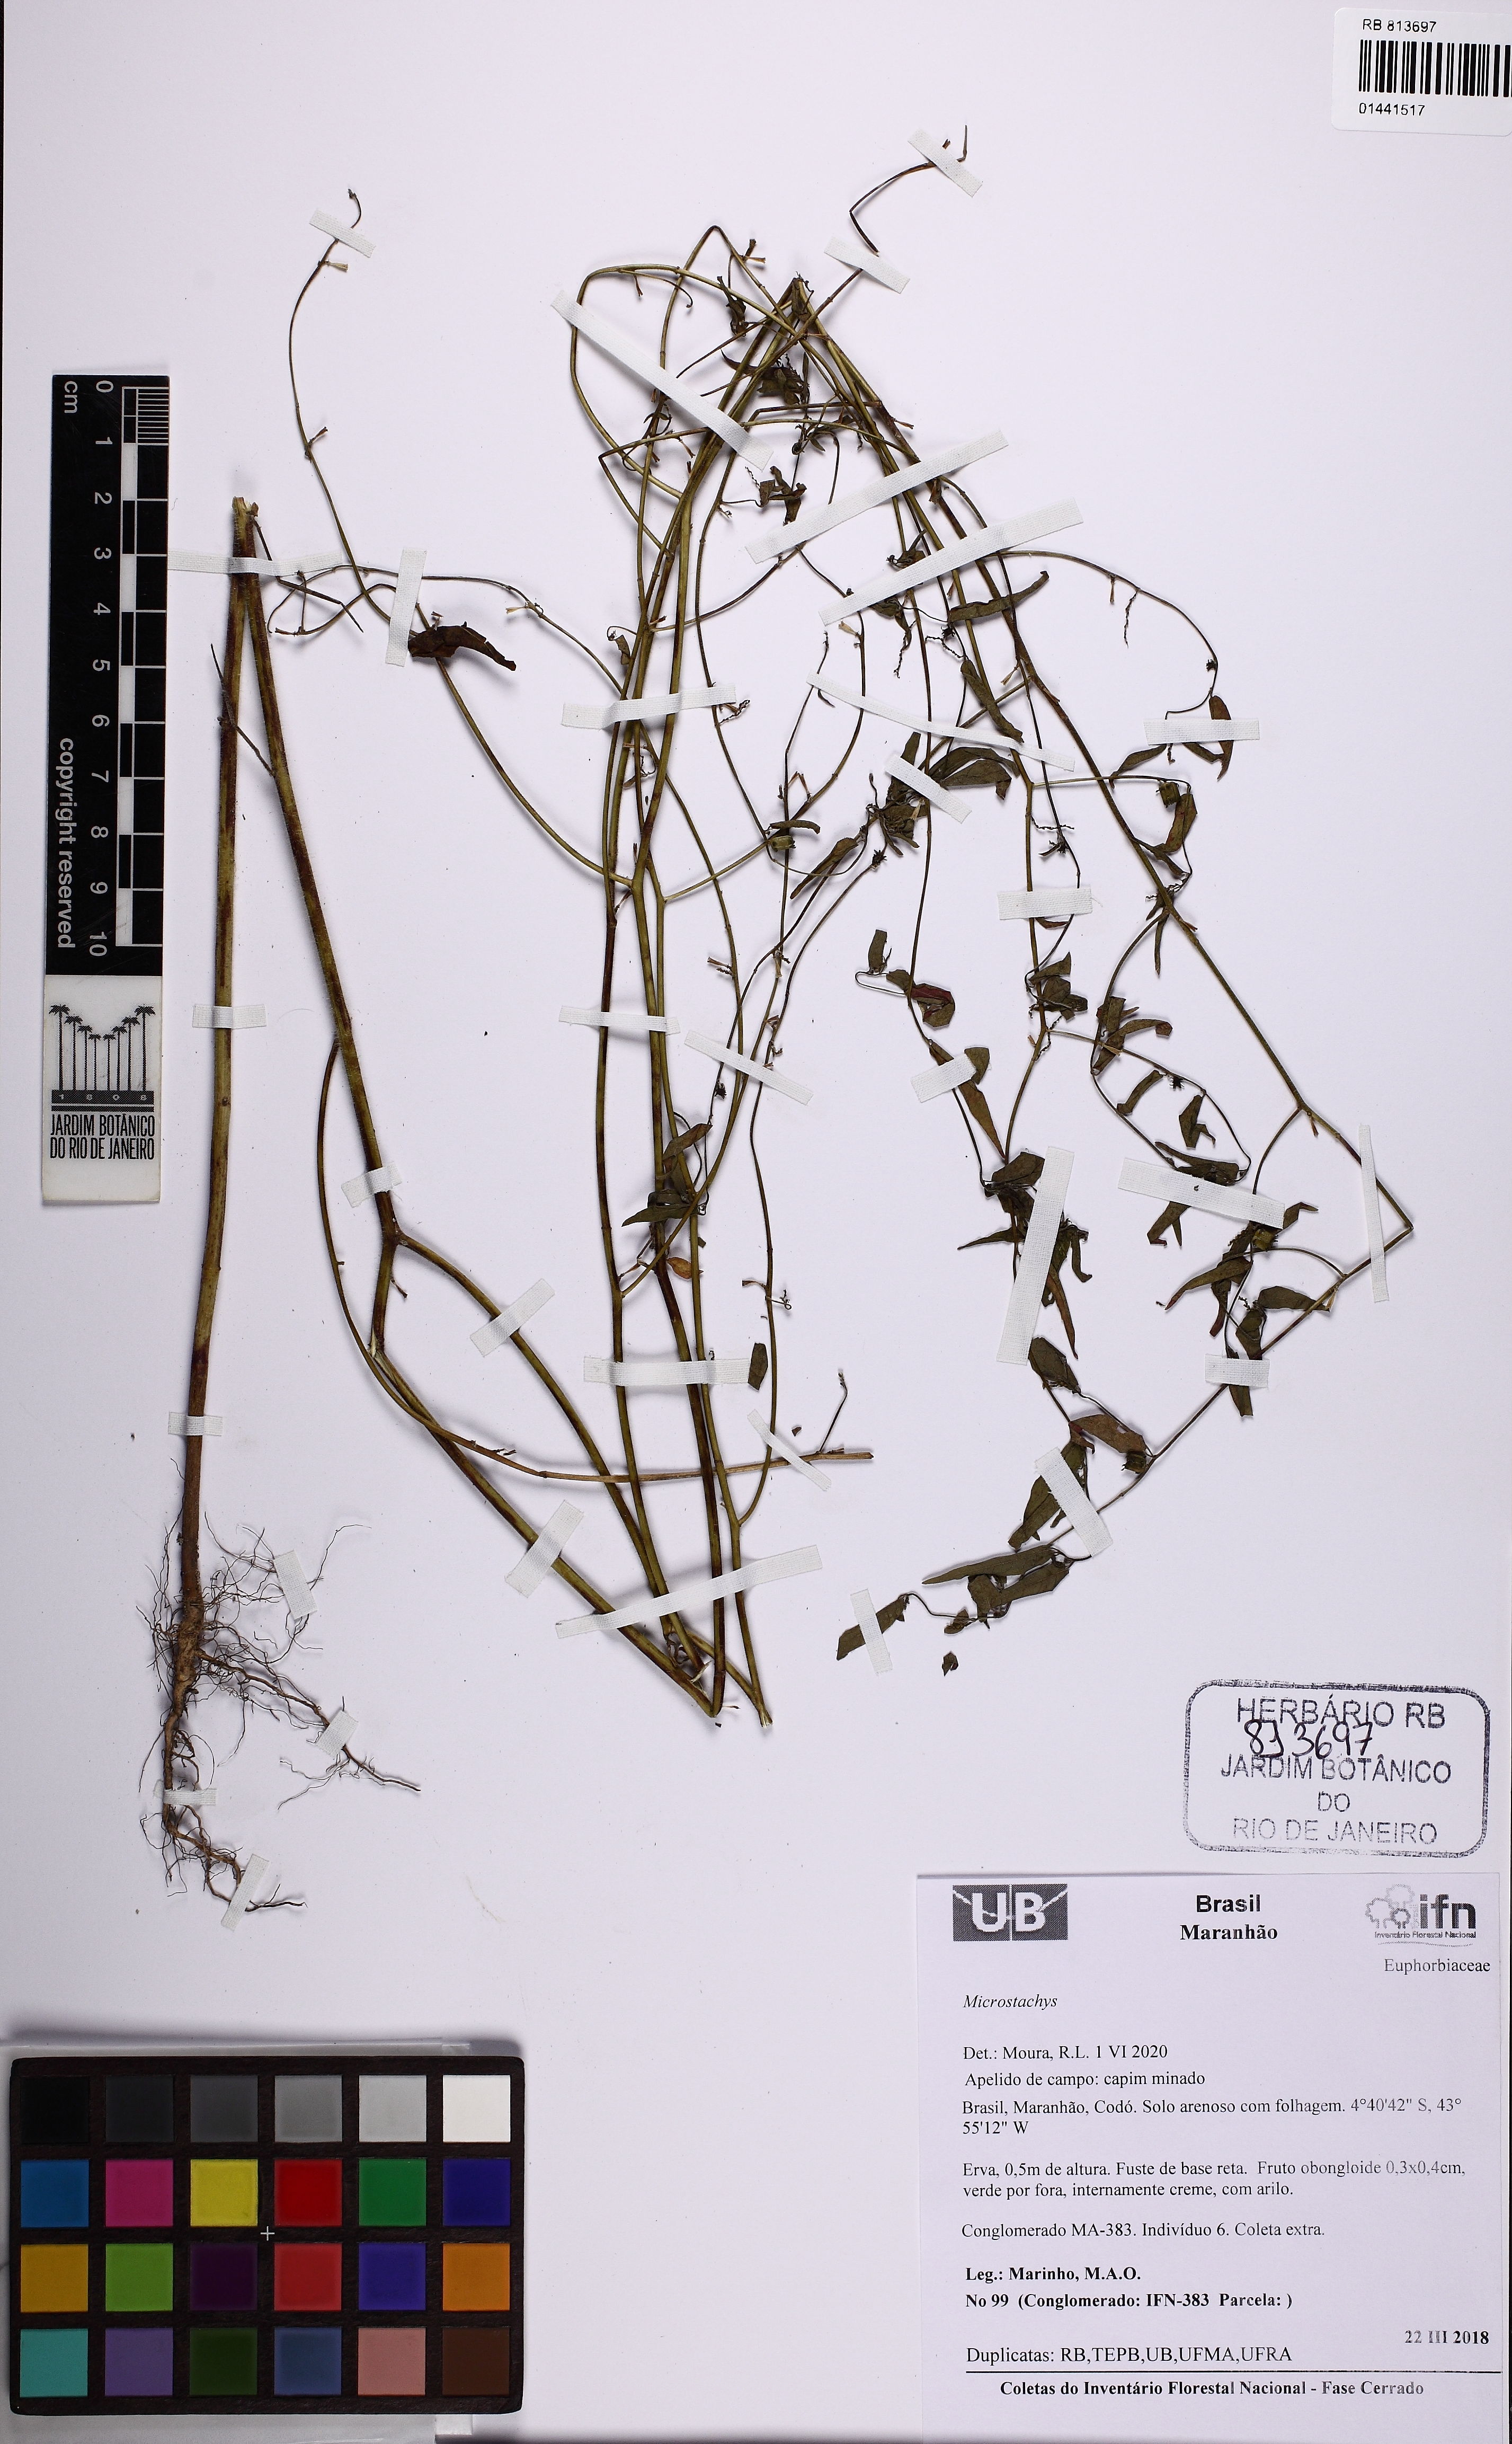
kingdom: Plantae
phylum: Tracheophyta
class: Magnoliopsida
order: Malpighiales
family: Euphorbiaceae
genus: Microstachys
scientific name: Microstachys
